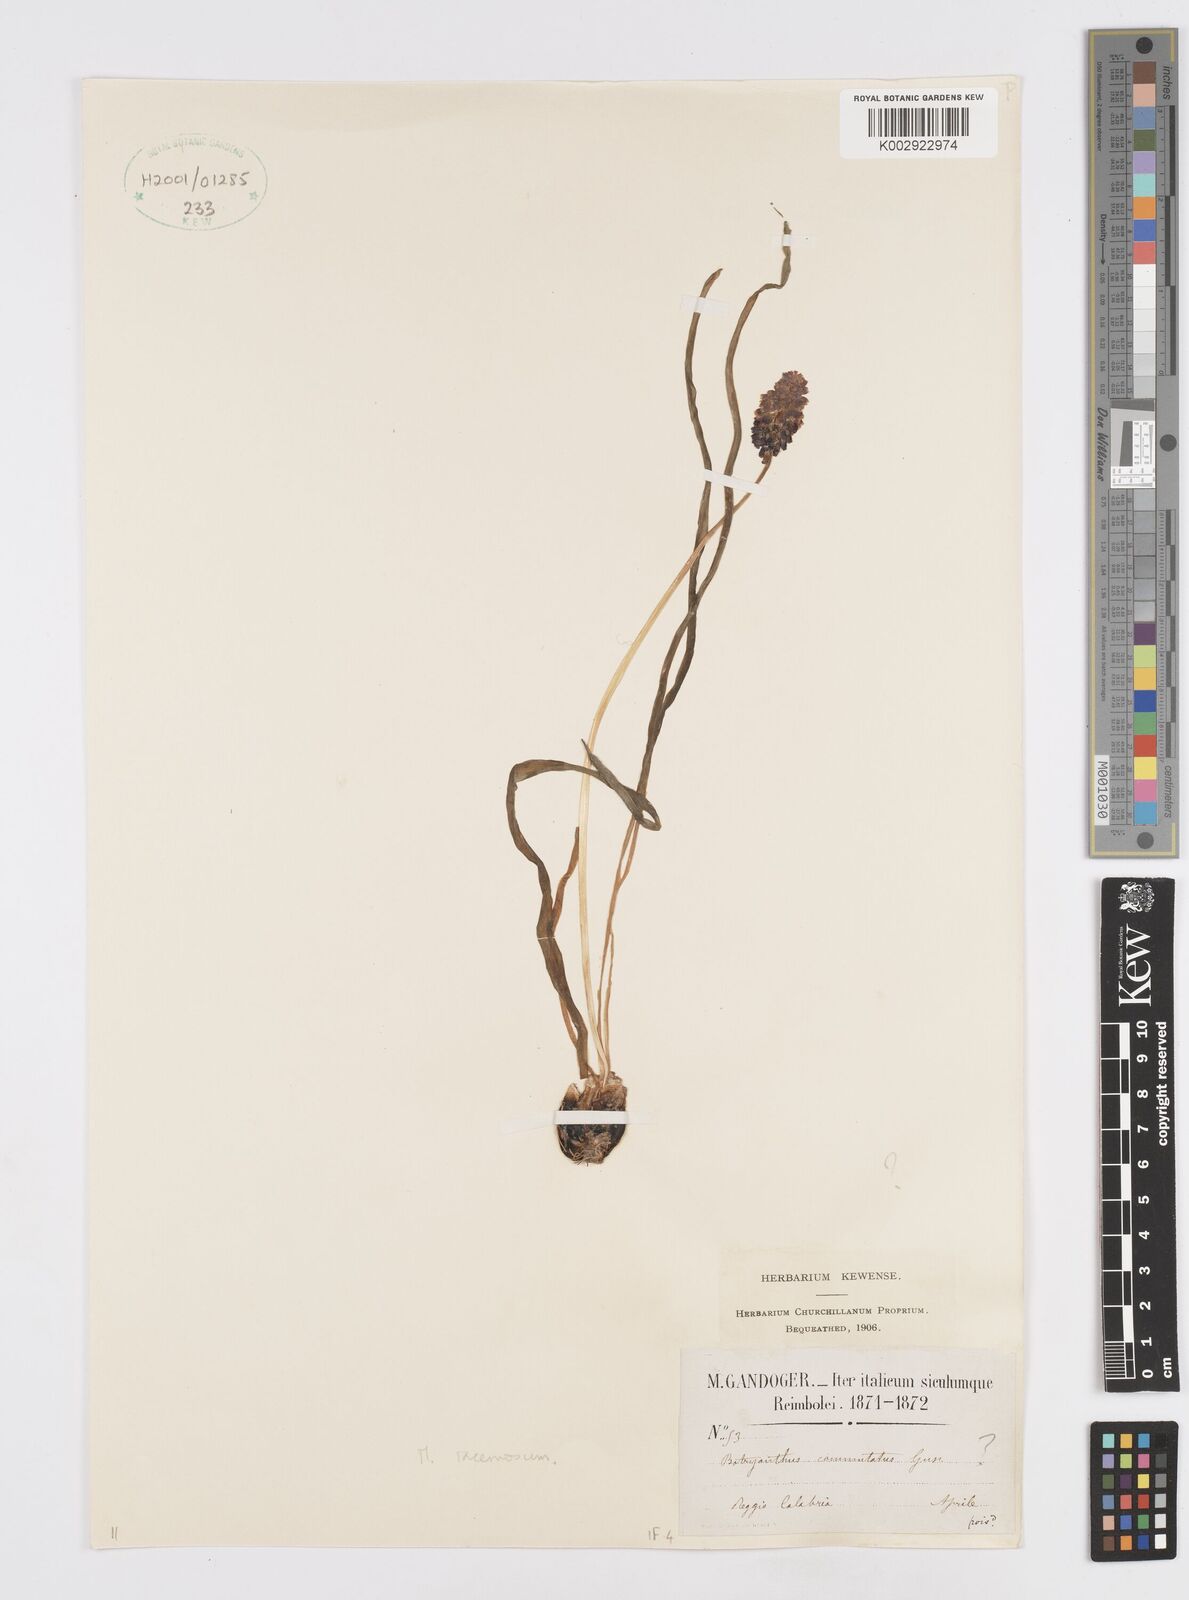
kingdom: Plantae
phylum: Tracheophyta
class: Liliopsida
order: Asparagales
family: Asparagaceae
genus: Muscarimia
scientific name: Muscarimia muscari
